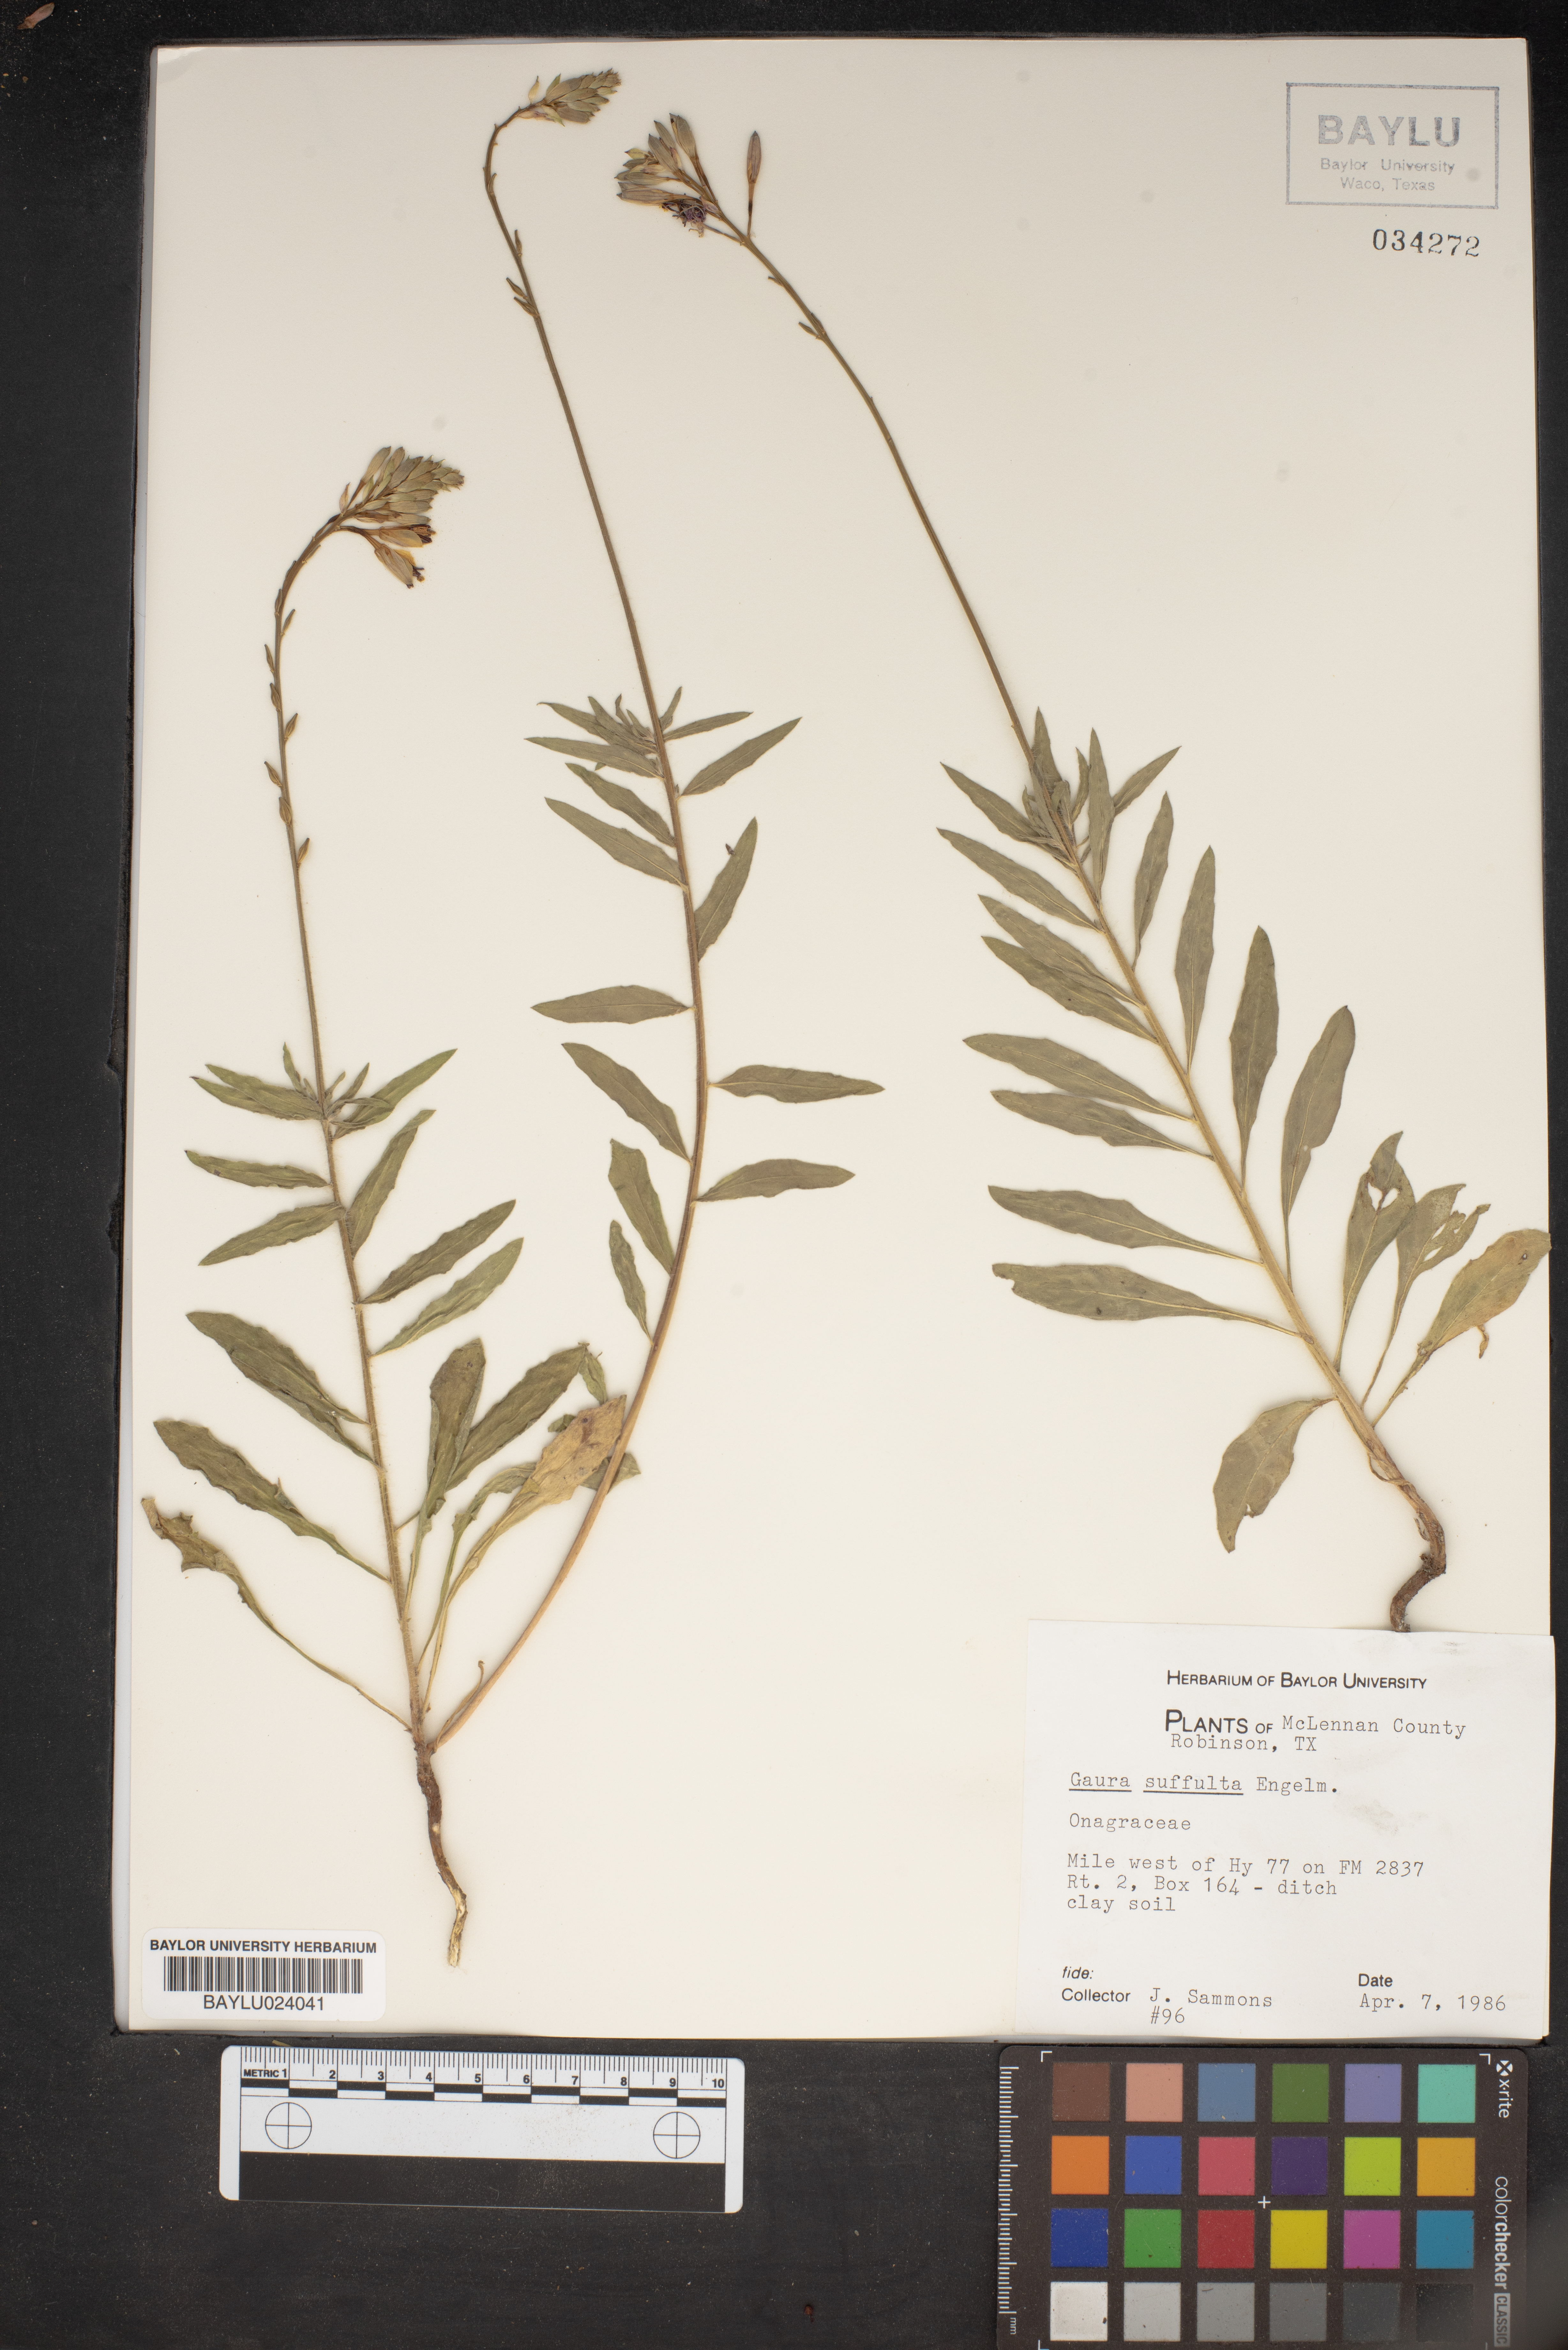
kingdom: Plantae
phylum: Tracheophyta
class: Magnoliopsida
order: Myrtales
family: Onagraceae
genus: Oenothera
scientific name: Oenothera Gaura suffulta
